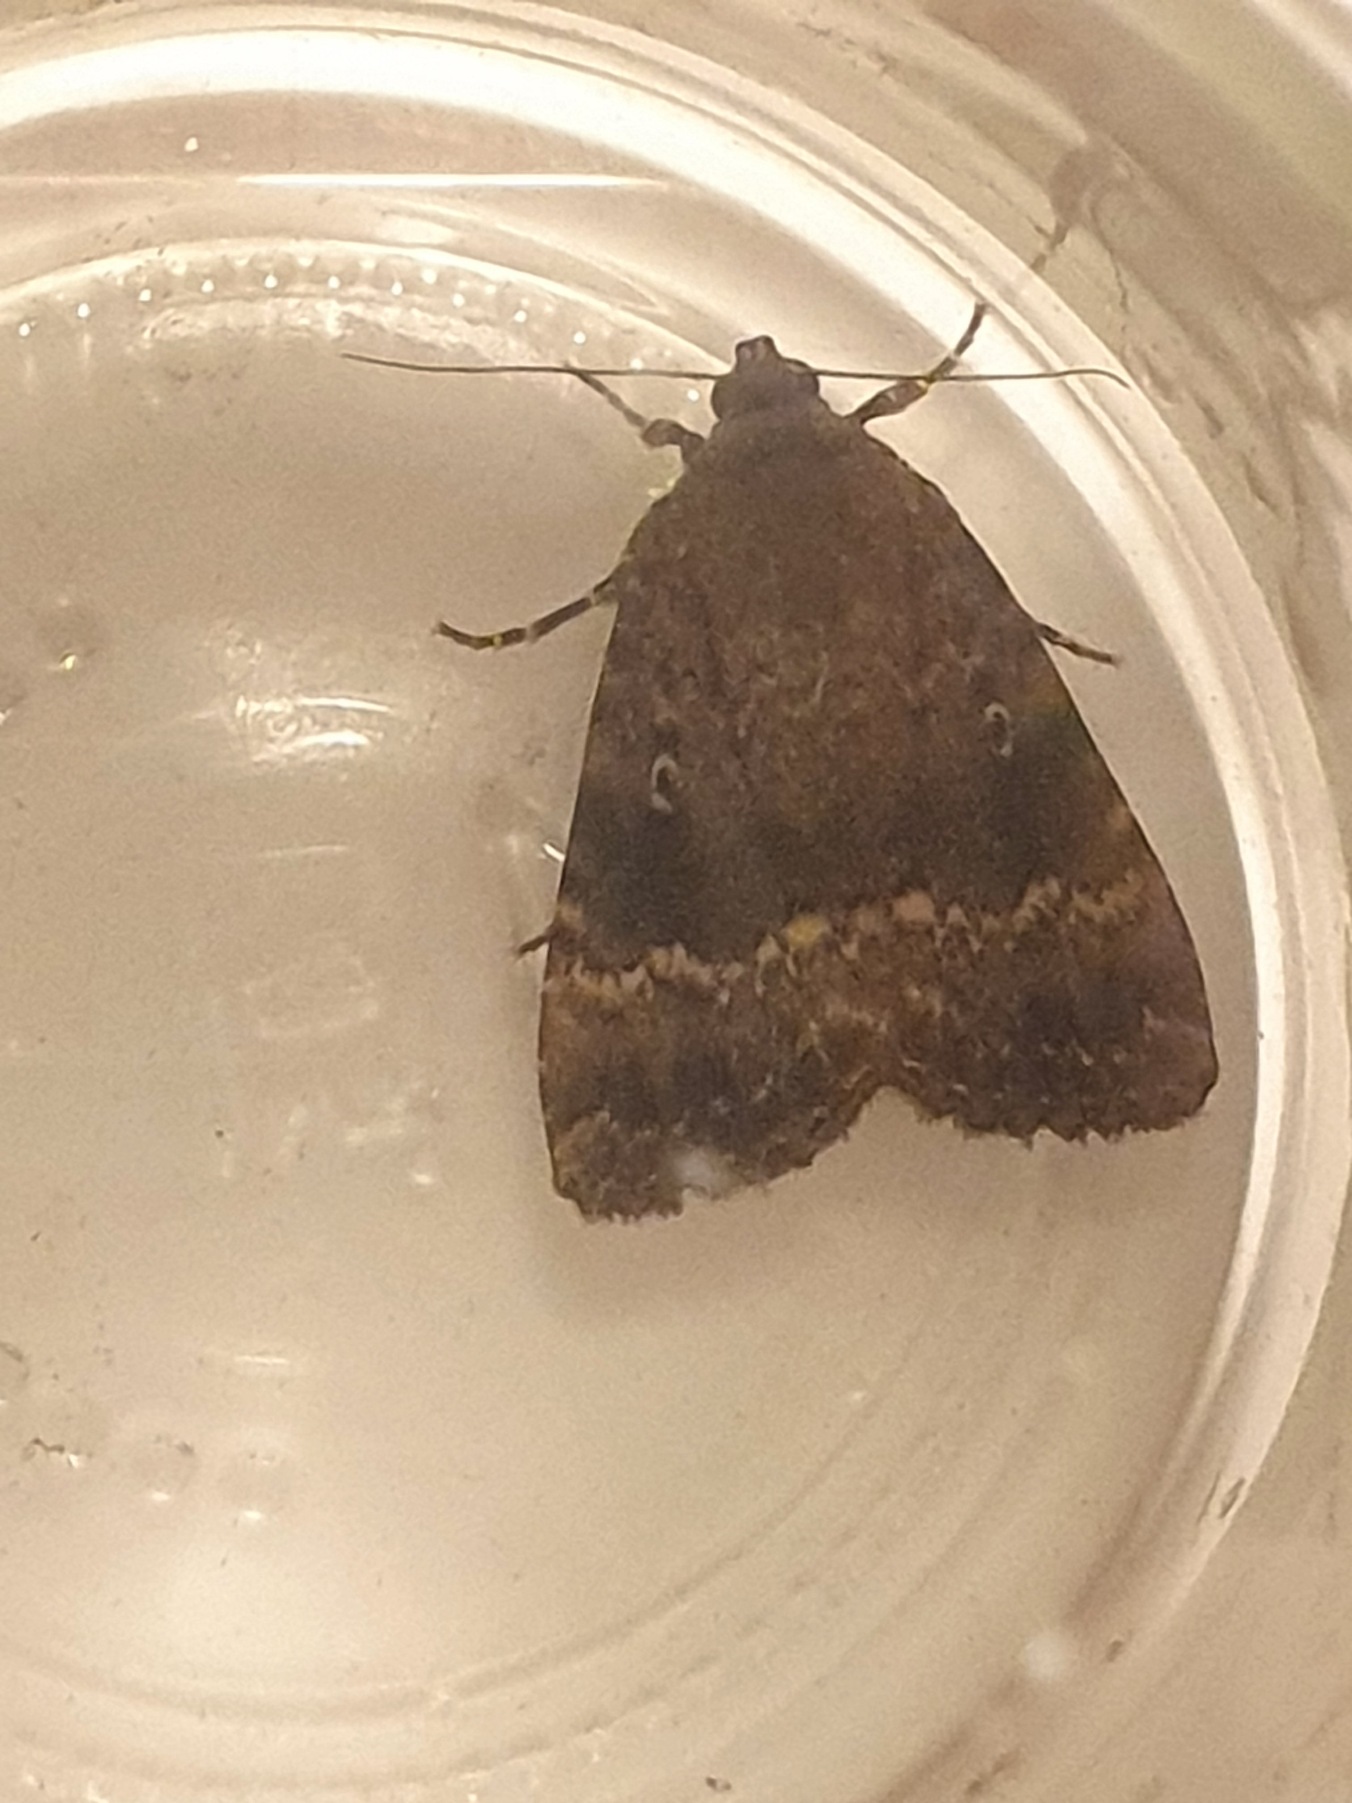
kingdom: Animalia
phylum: Arthropoda
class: Insecta
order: Lepidoptera
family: Noctuidae
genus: Amphipyra
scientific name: Amphipyra pyramidea
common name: Pyramideugle
